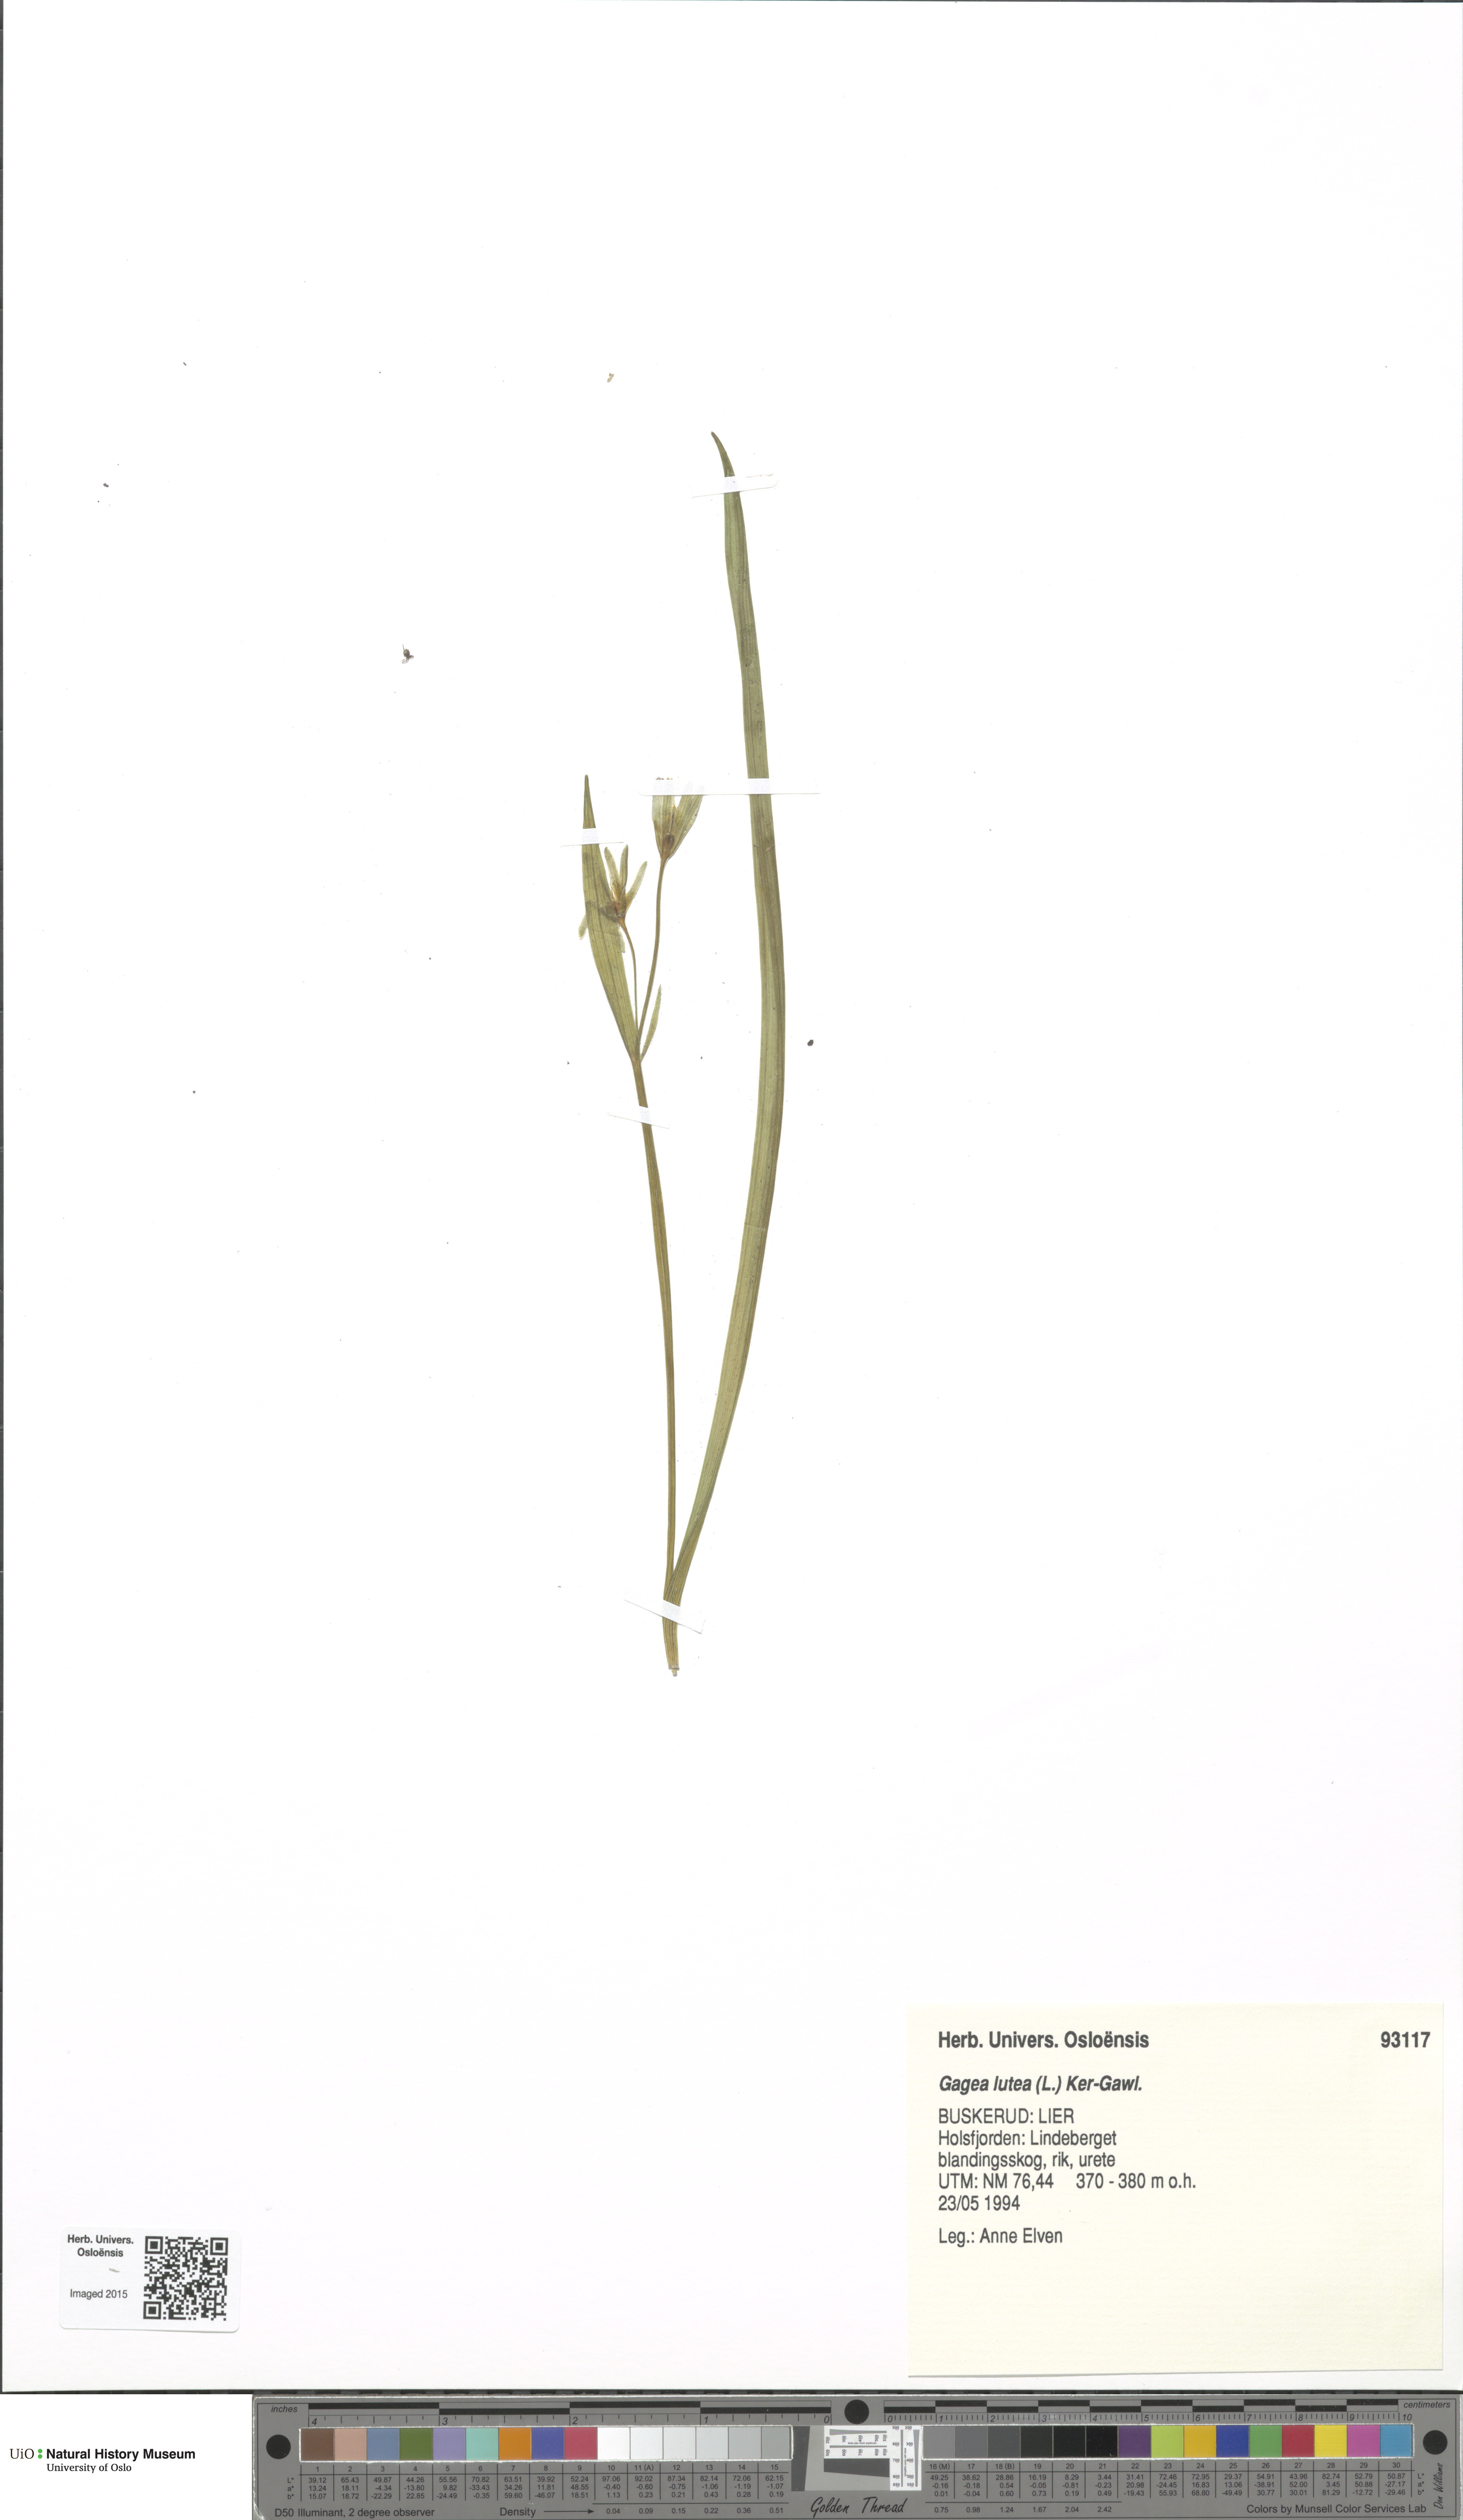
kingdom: Plantae
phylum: Tracheophyta
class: Liliopsida
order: Liliales
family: Liliaceae
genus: Gagea
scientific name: Gagea lutea
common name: Yellow star-of-bethlehem
